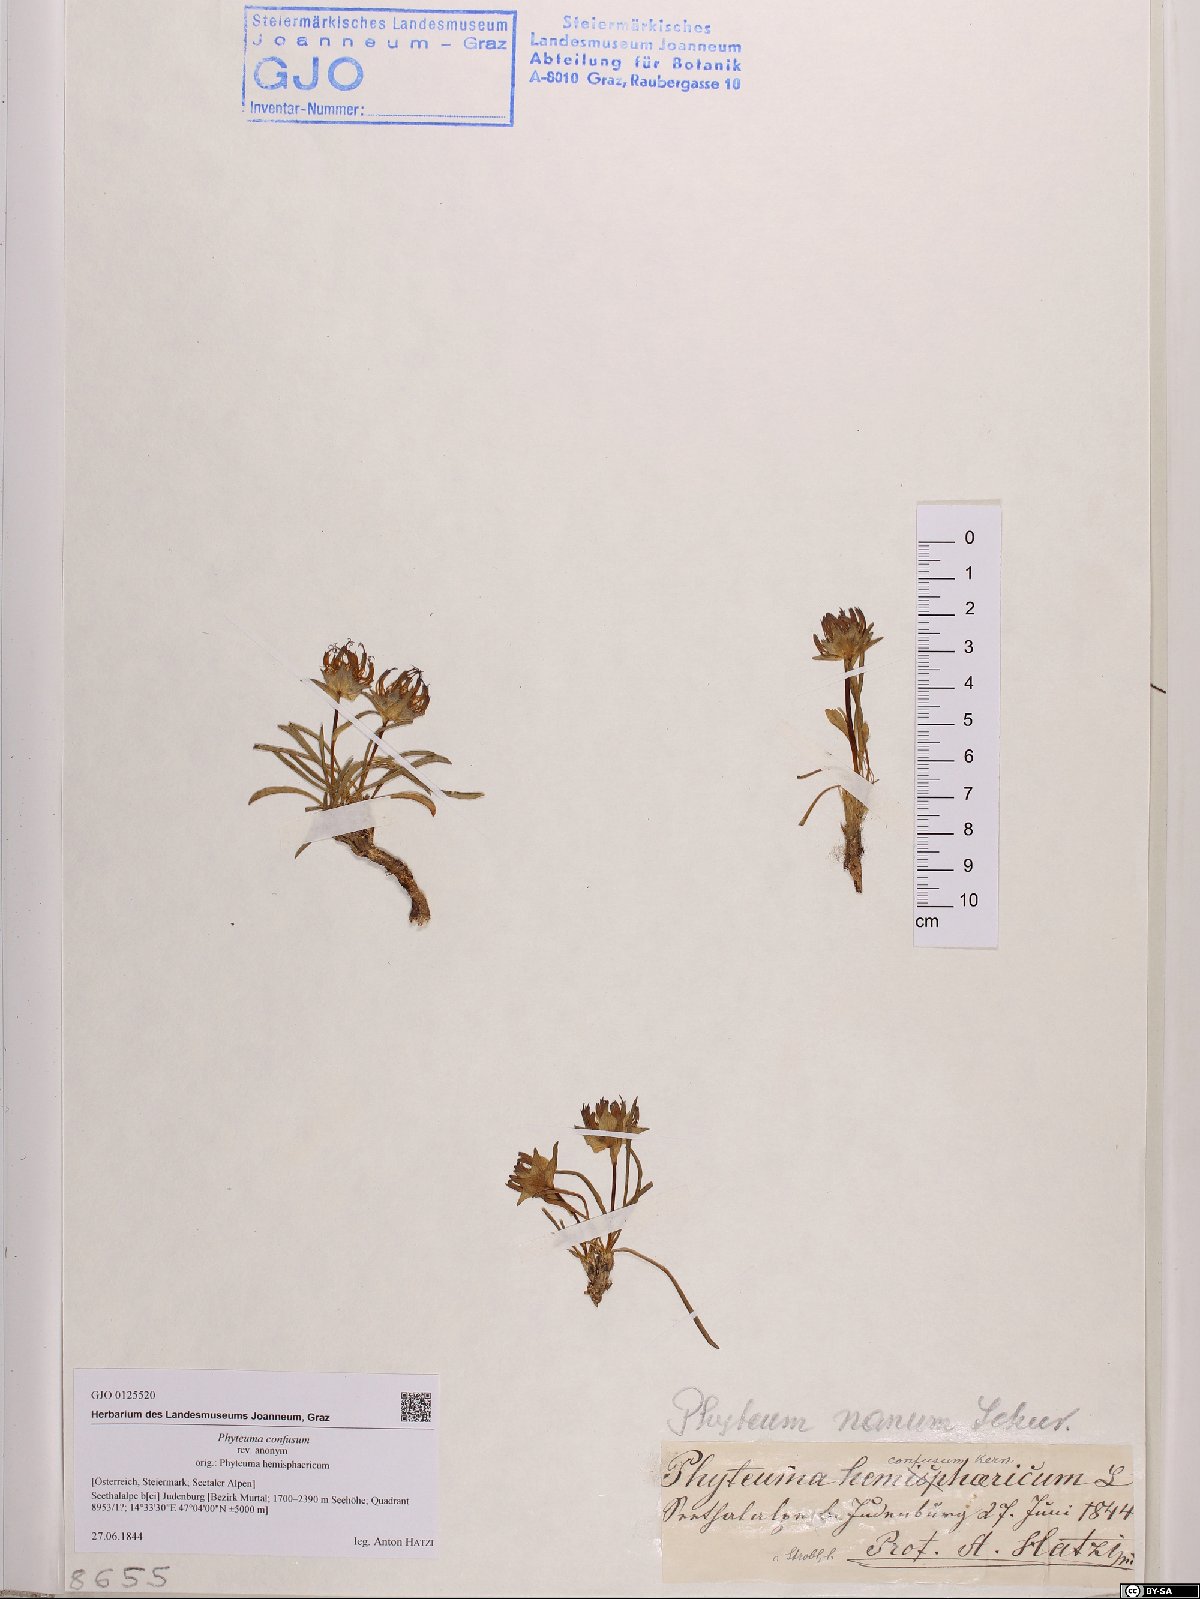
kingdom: Plantae
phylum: Tracheophyta
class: Magnoliopsida
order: Asterales
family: Campanulaceae
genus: Phyteuma
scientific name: Phyteuma confusum
